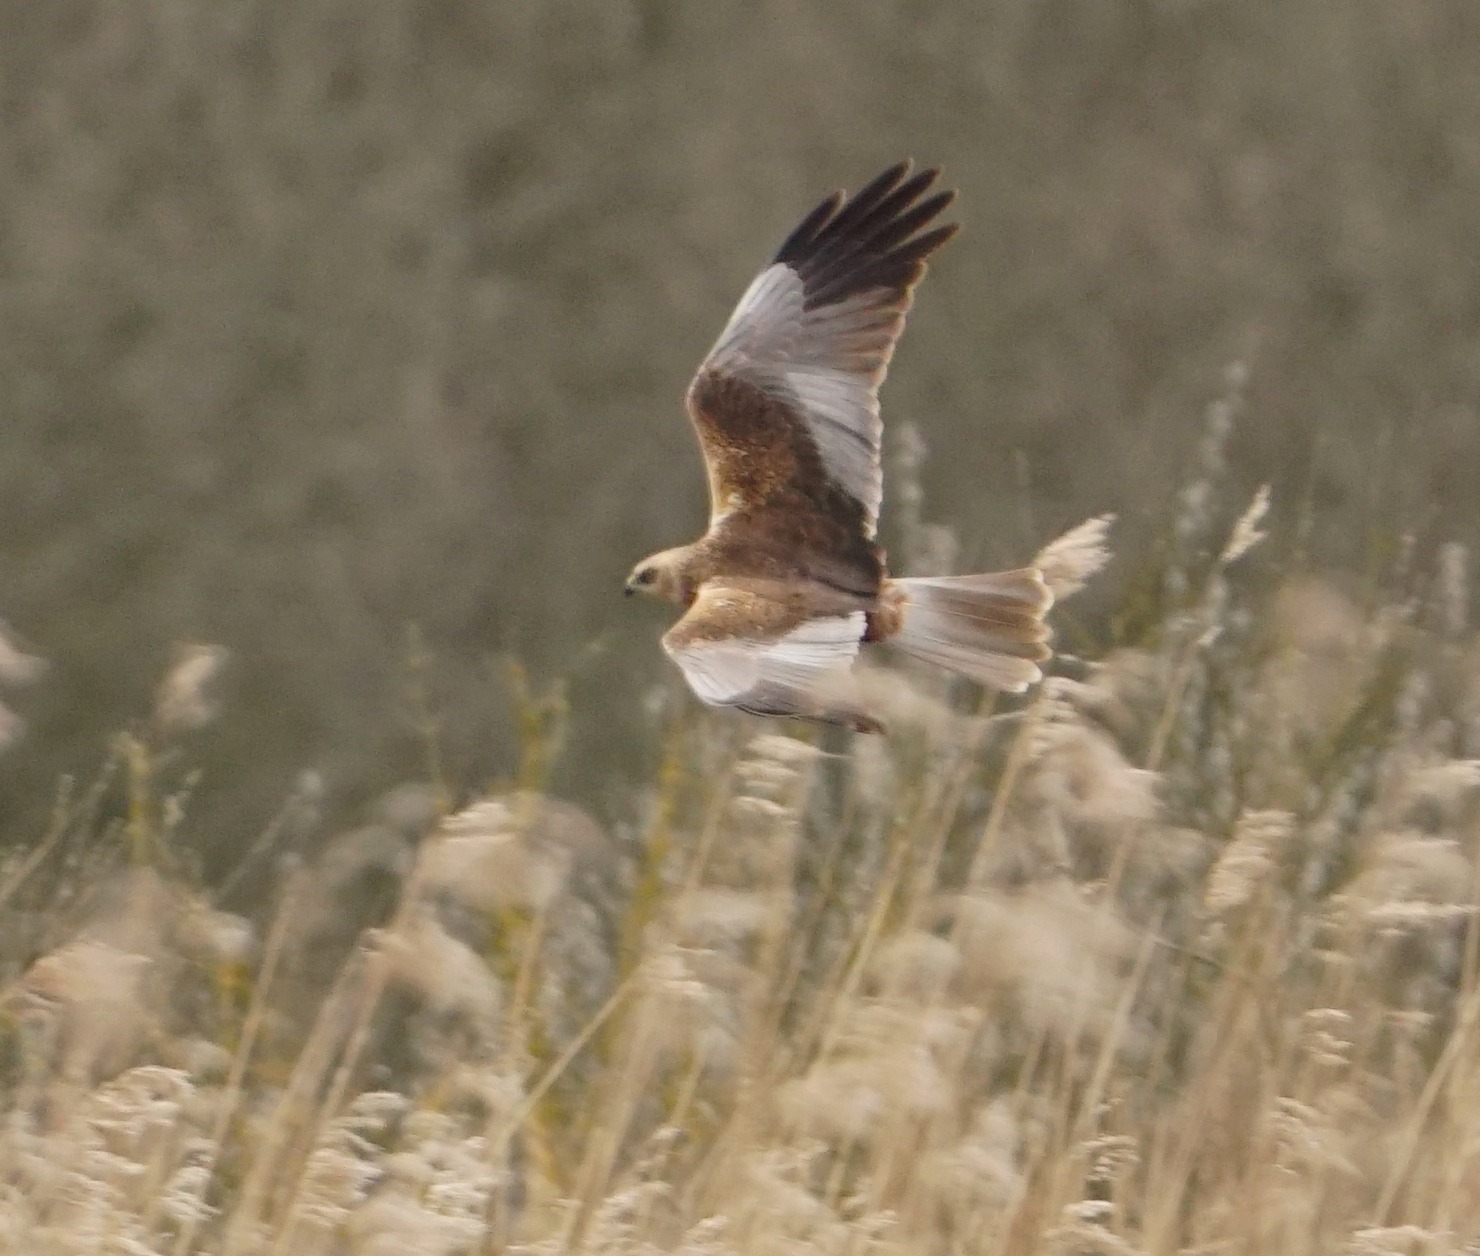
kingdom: Animalia
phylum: Chordata
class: Aves
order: Accipitriformes
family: Accipitridae
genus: Circus
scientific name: Circus aeruginosus
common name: Rørhøg
